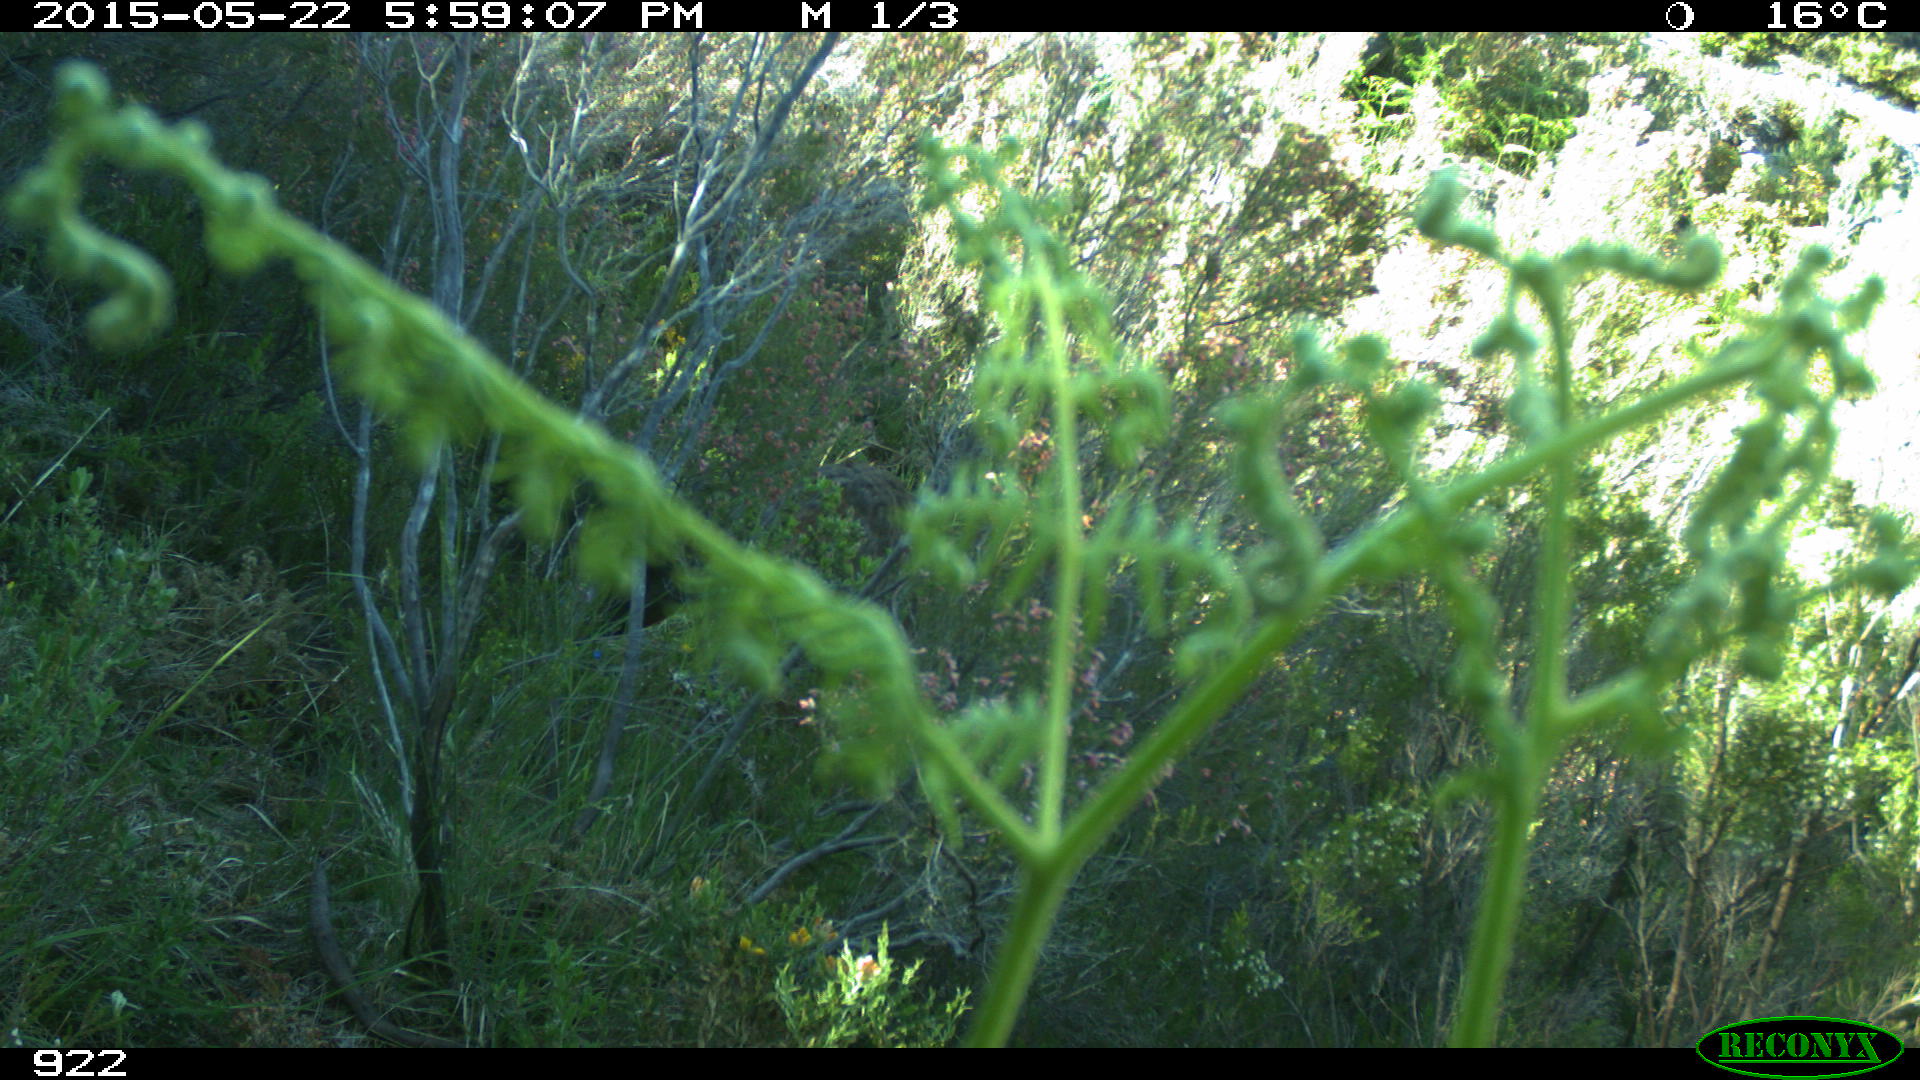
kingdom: Animalia
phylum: Chordata
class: Mammalia
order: Artiodactyla
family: Cervidae
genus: Capreolus
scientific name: Capreolus capreolus
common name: Western roe deer
